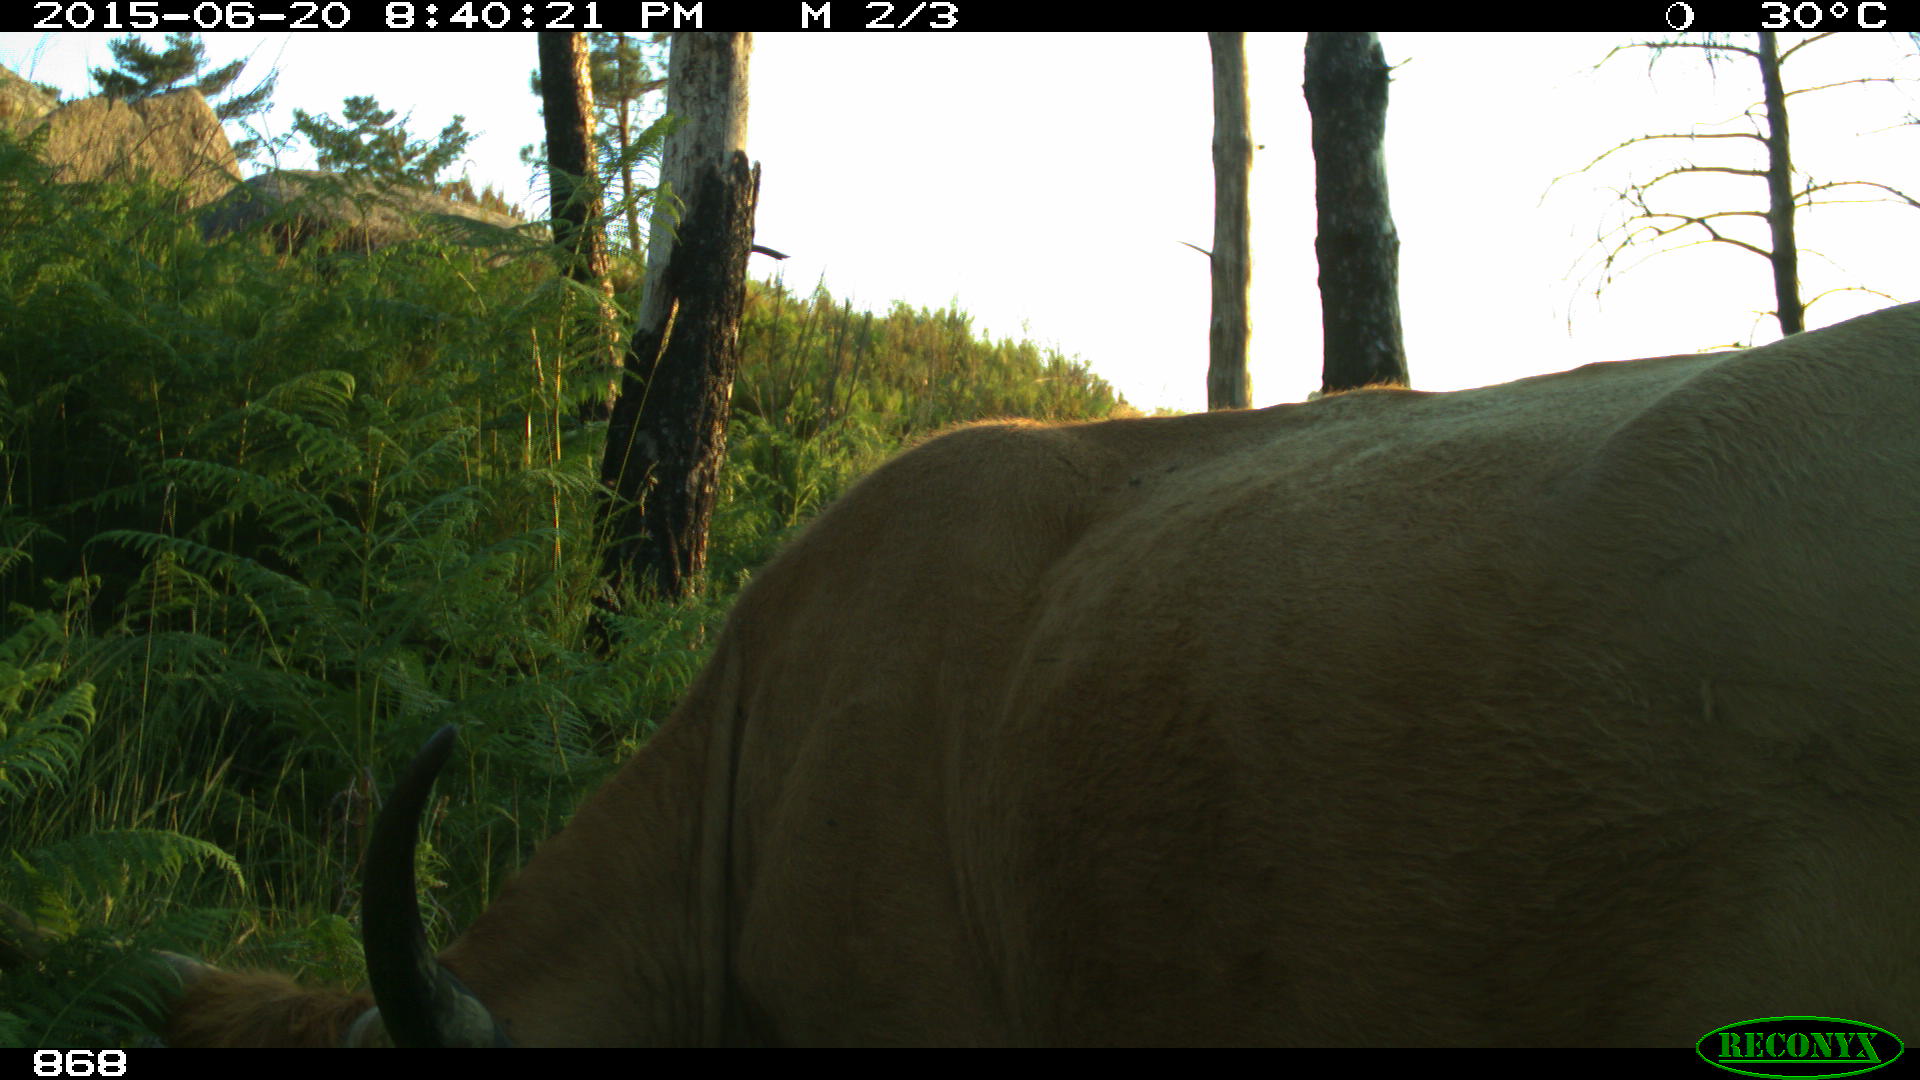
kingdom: Animalia
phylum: Chordata
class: Mammalia
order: Artiodactyla
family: Bovidae
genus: Bos
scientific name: Bos taurus
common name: Domesticated cattle
